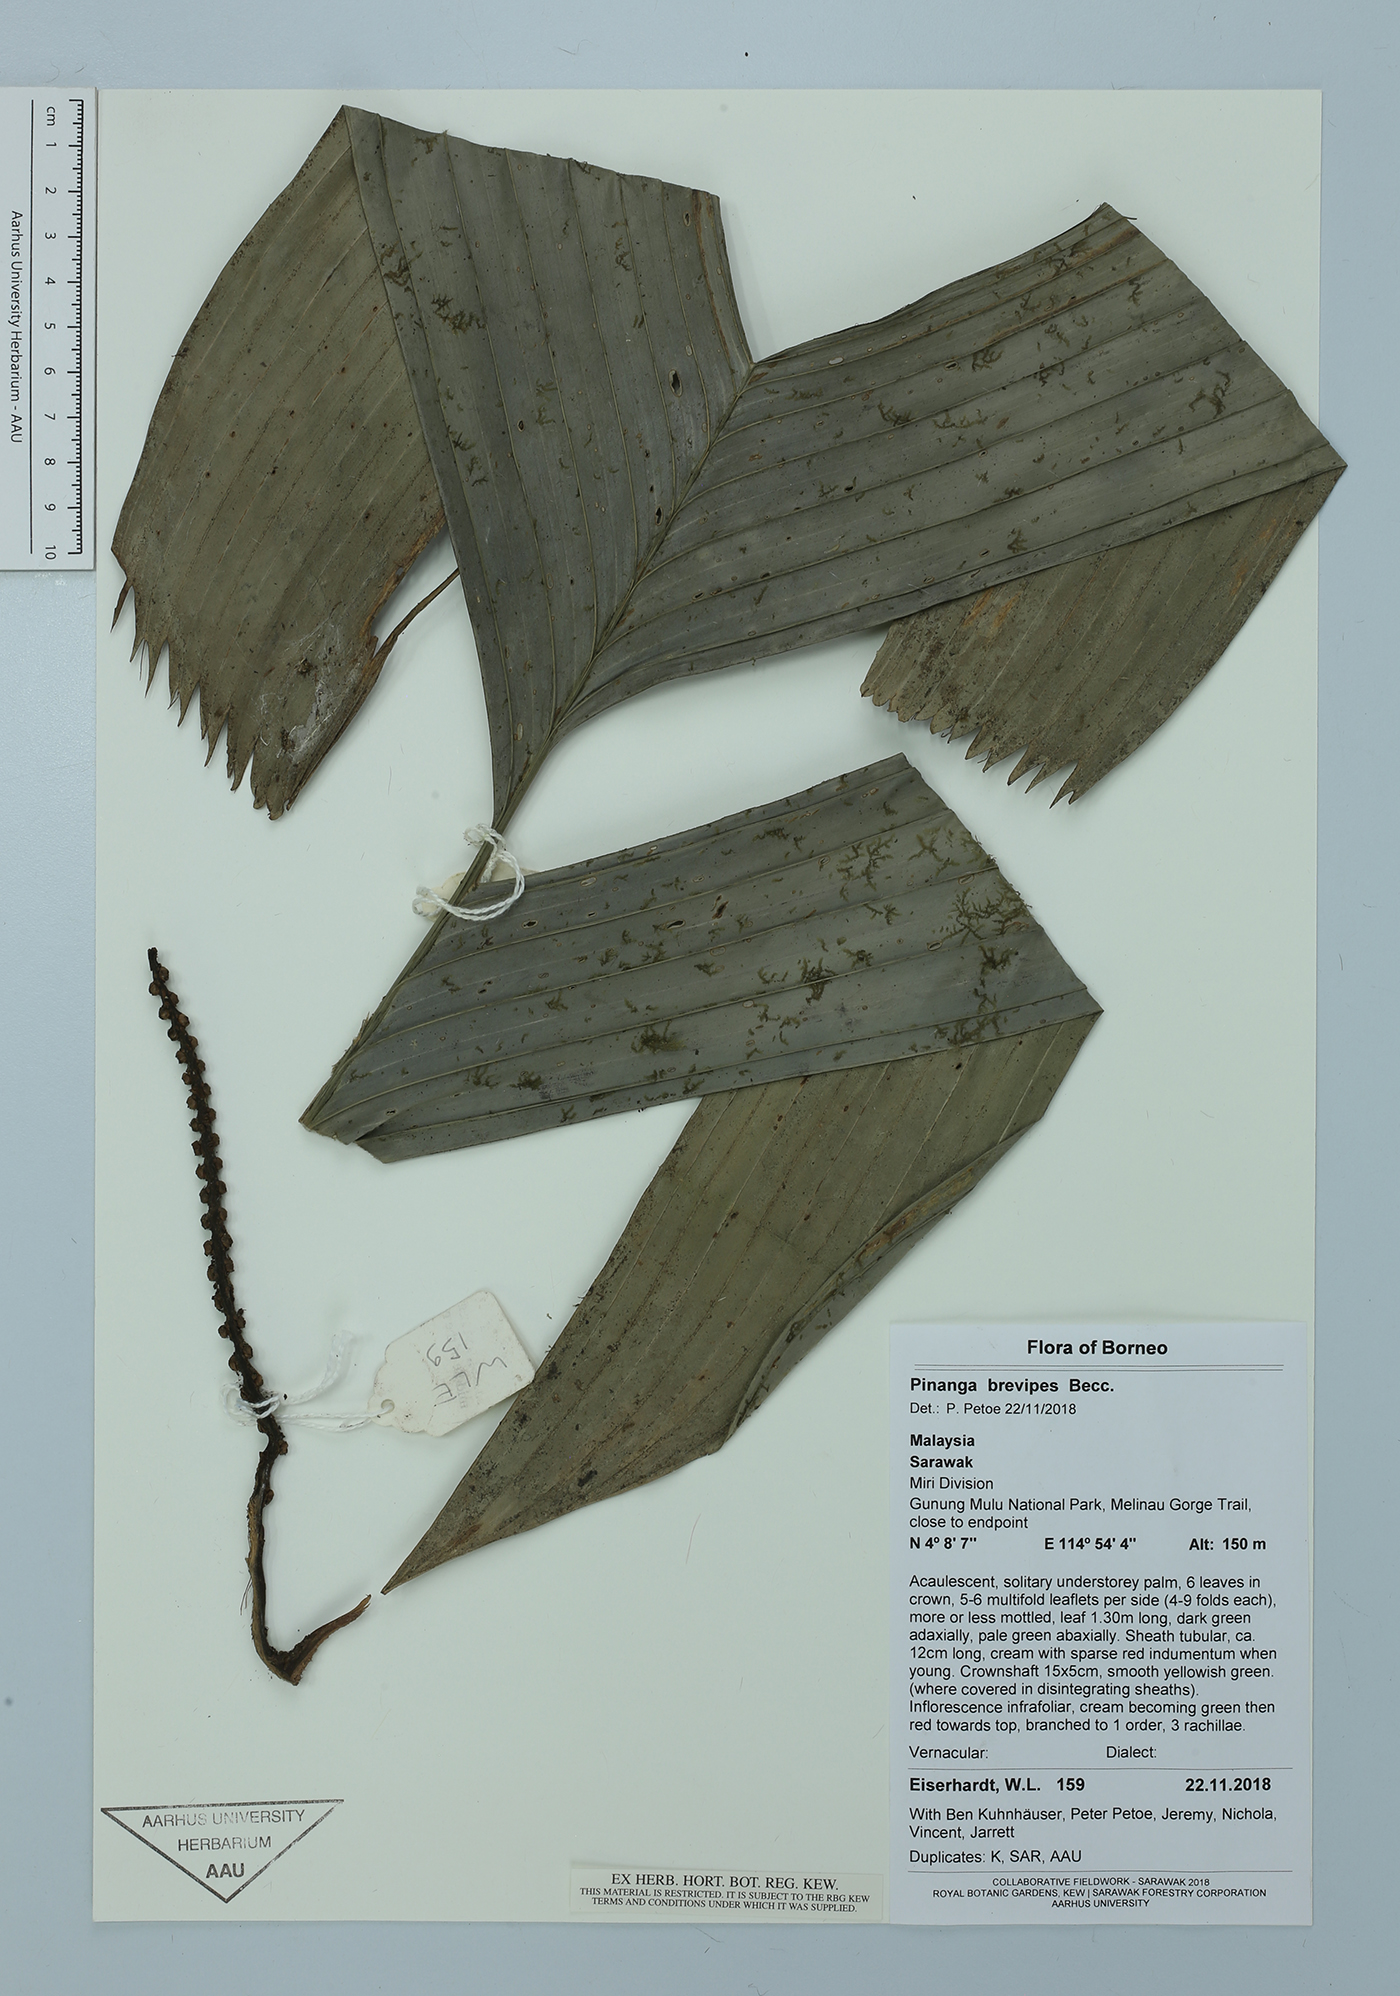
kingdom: Plantae
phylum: Tracheophyta
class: Liliopsida
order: Arecales
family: Arecaceae
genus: Pinanga
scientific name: Pinanga brevipes
